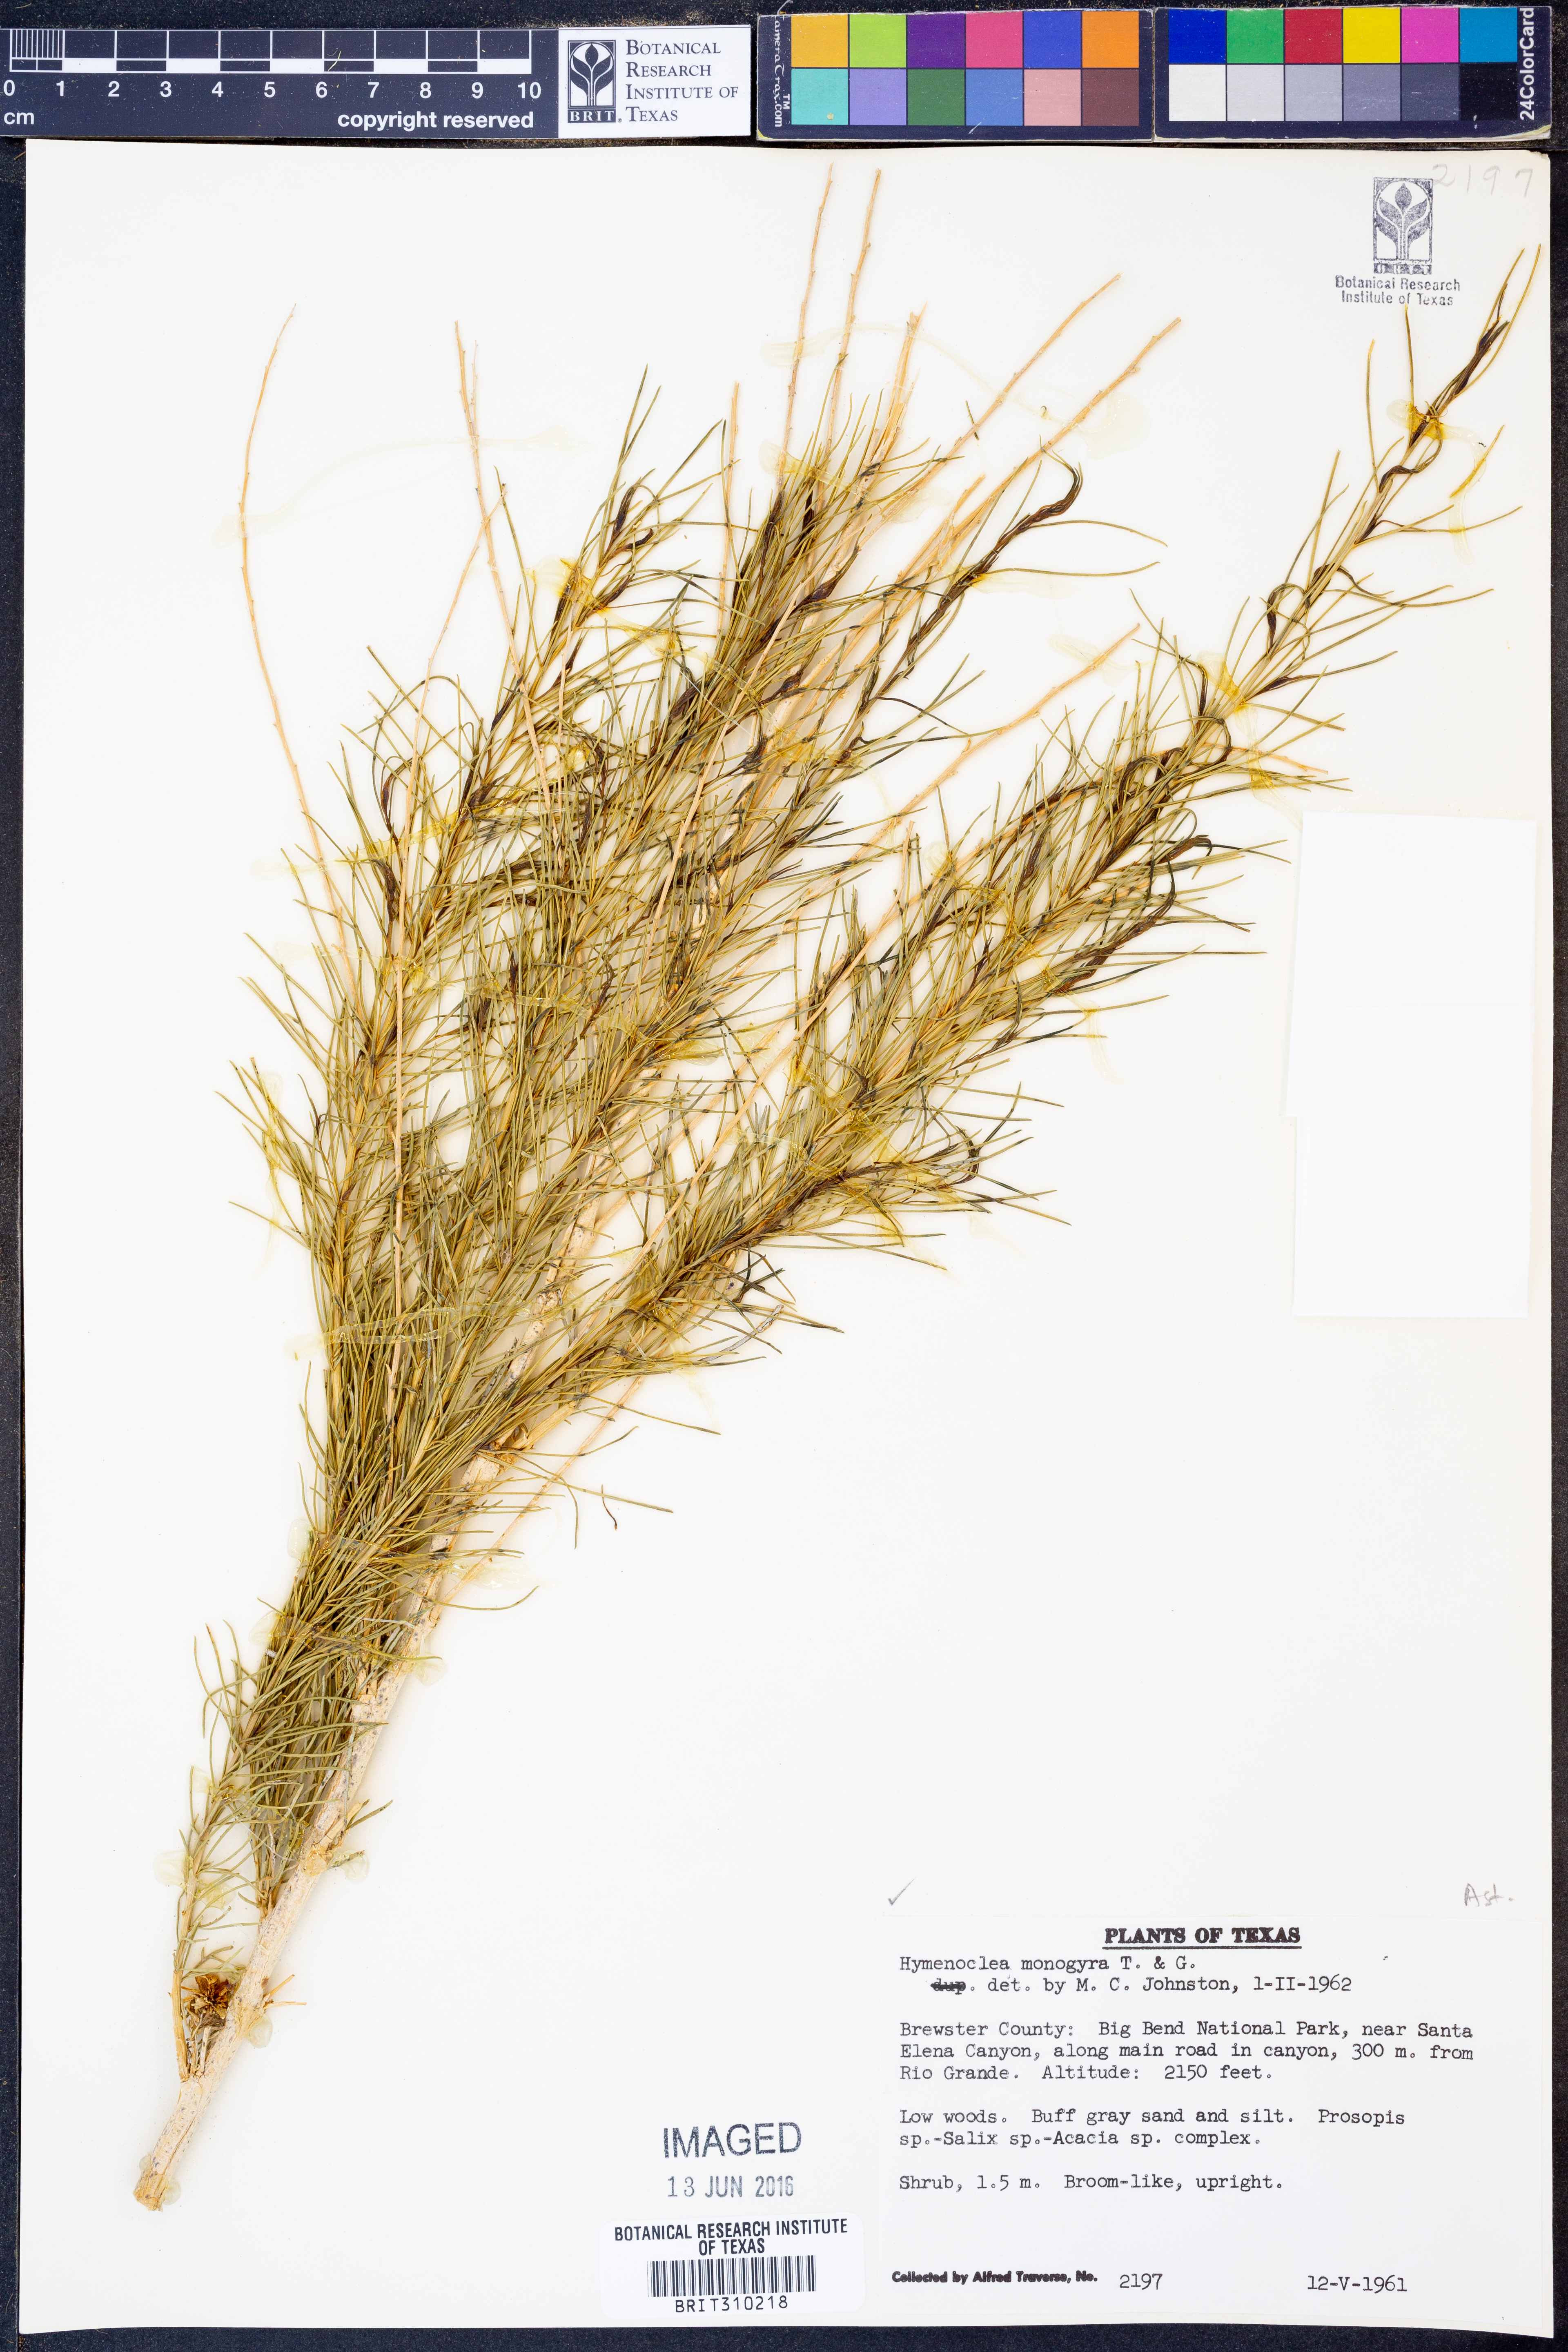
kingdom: Plantae
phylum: Tracheophyta
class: Magnoliopsida
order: Asterales
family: Asteraceae
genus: Ambrosia
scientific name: Ambrosia monogyra
